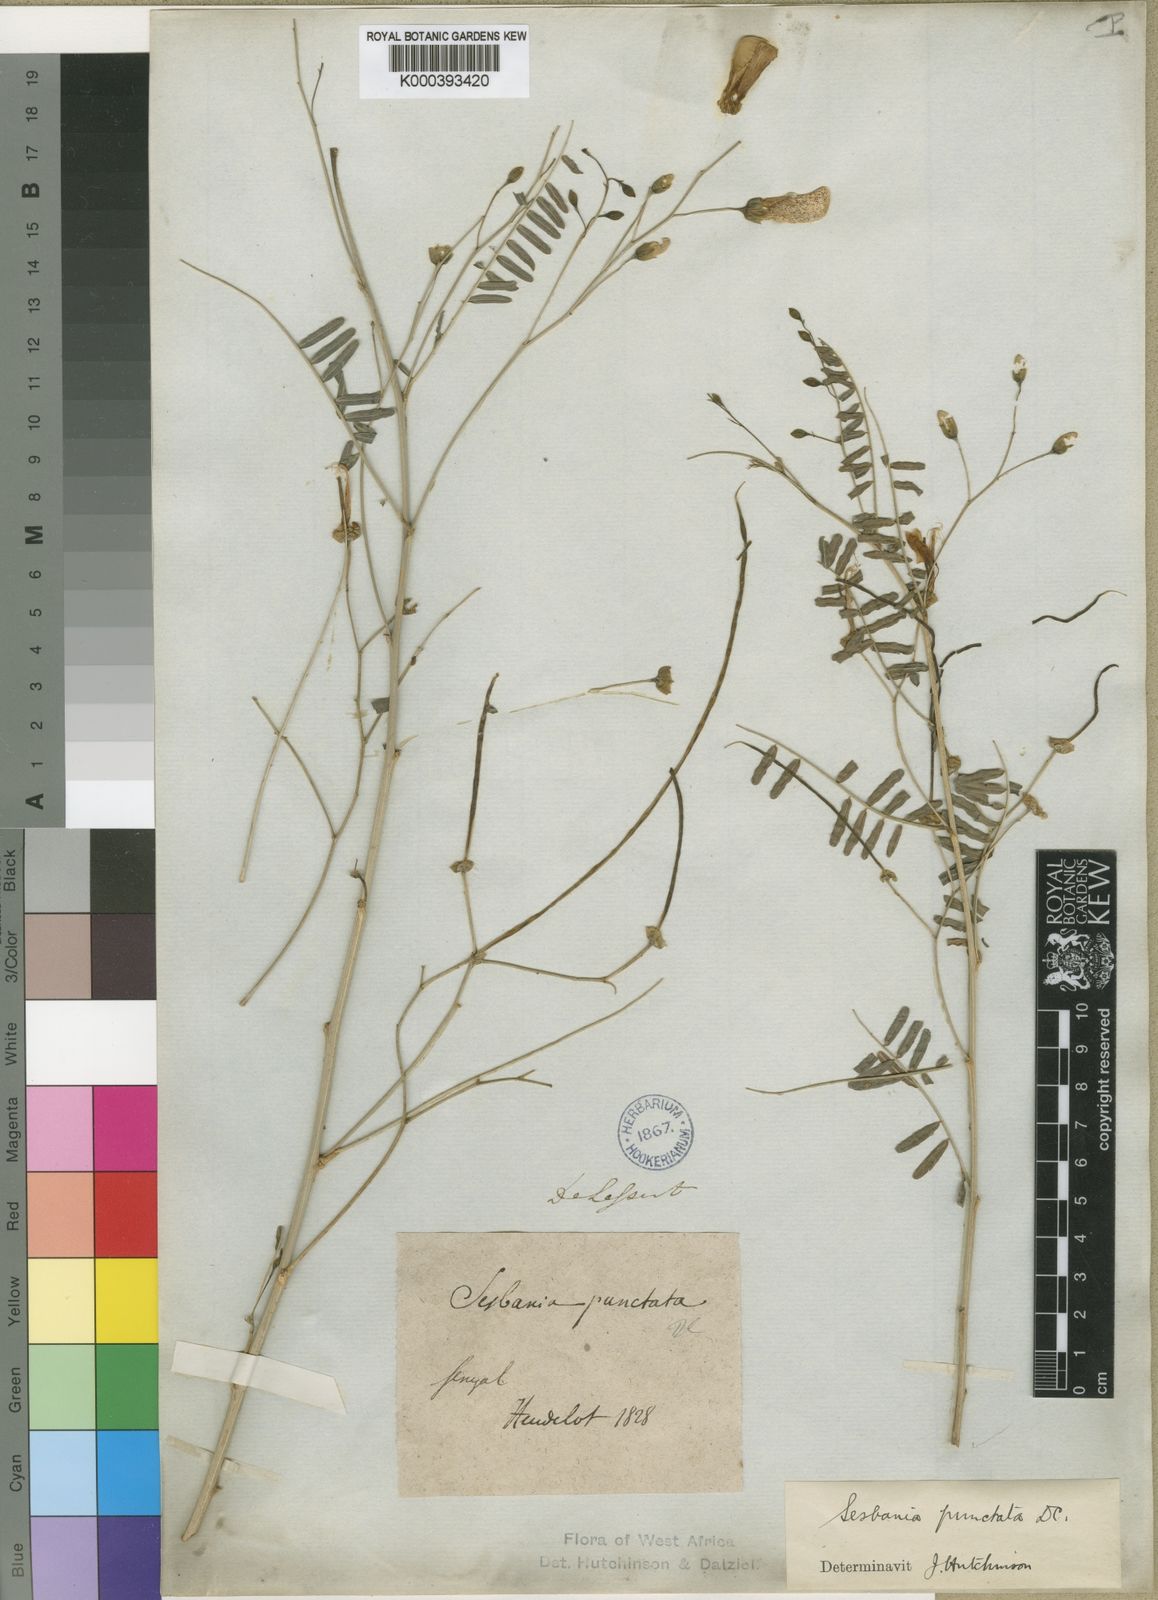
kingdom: Plantae
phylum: Tracheophyta
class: Magnoliopsida
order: Fabales
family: Fabaceae
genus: Sesbania
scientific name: Sesbania sesban
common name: Egyptian sesban
